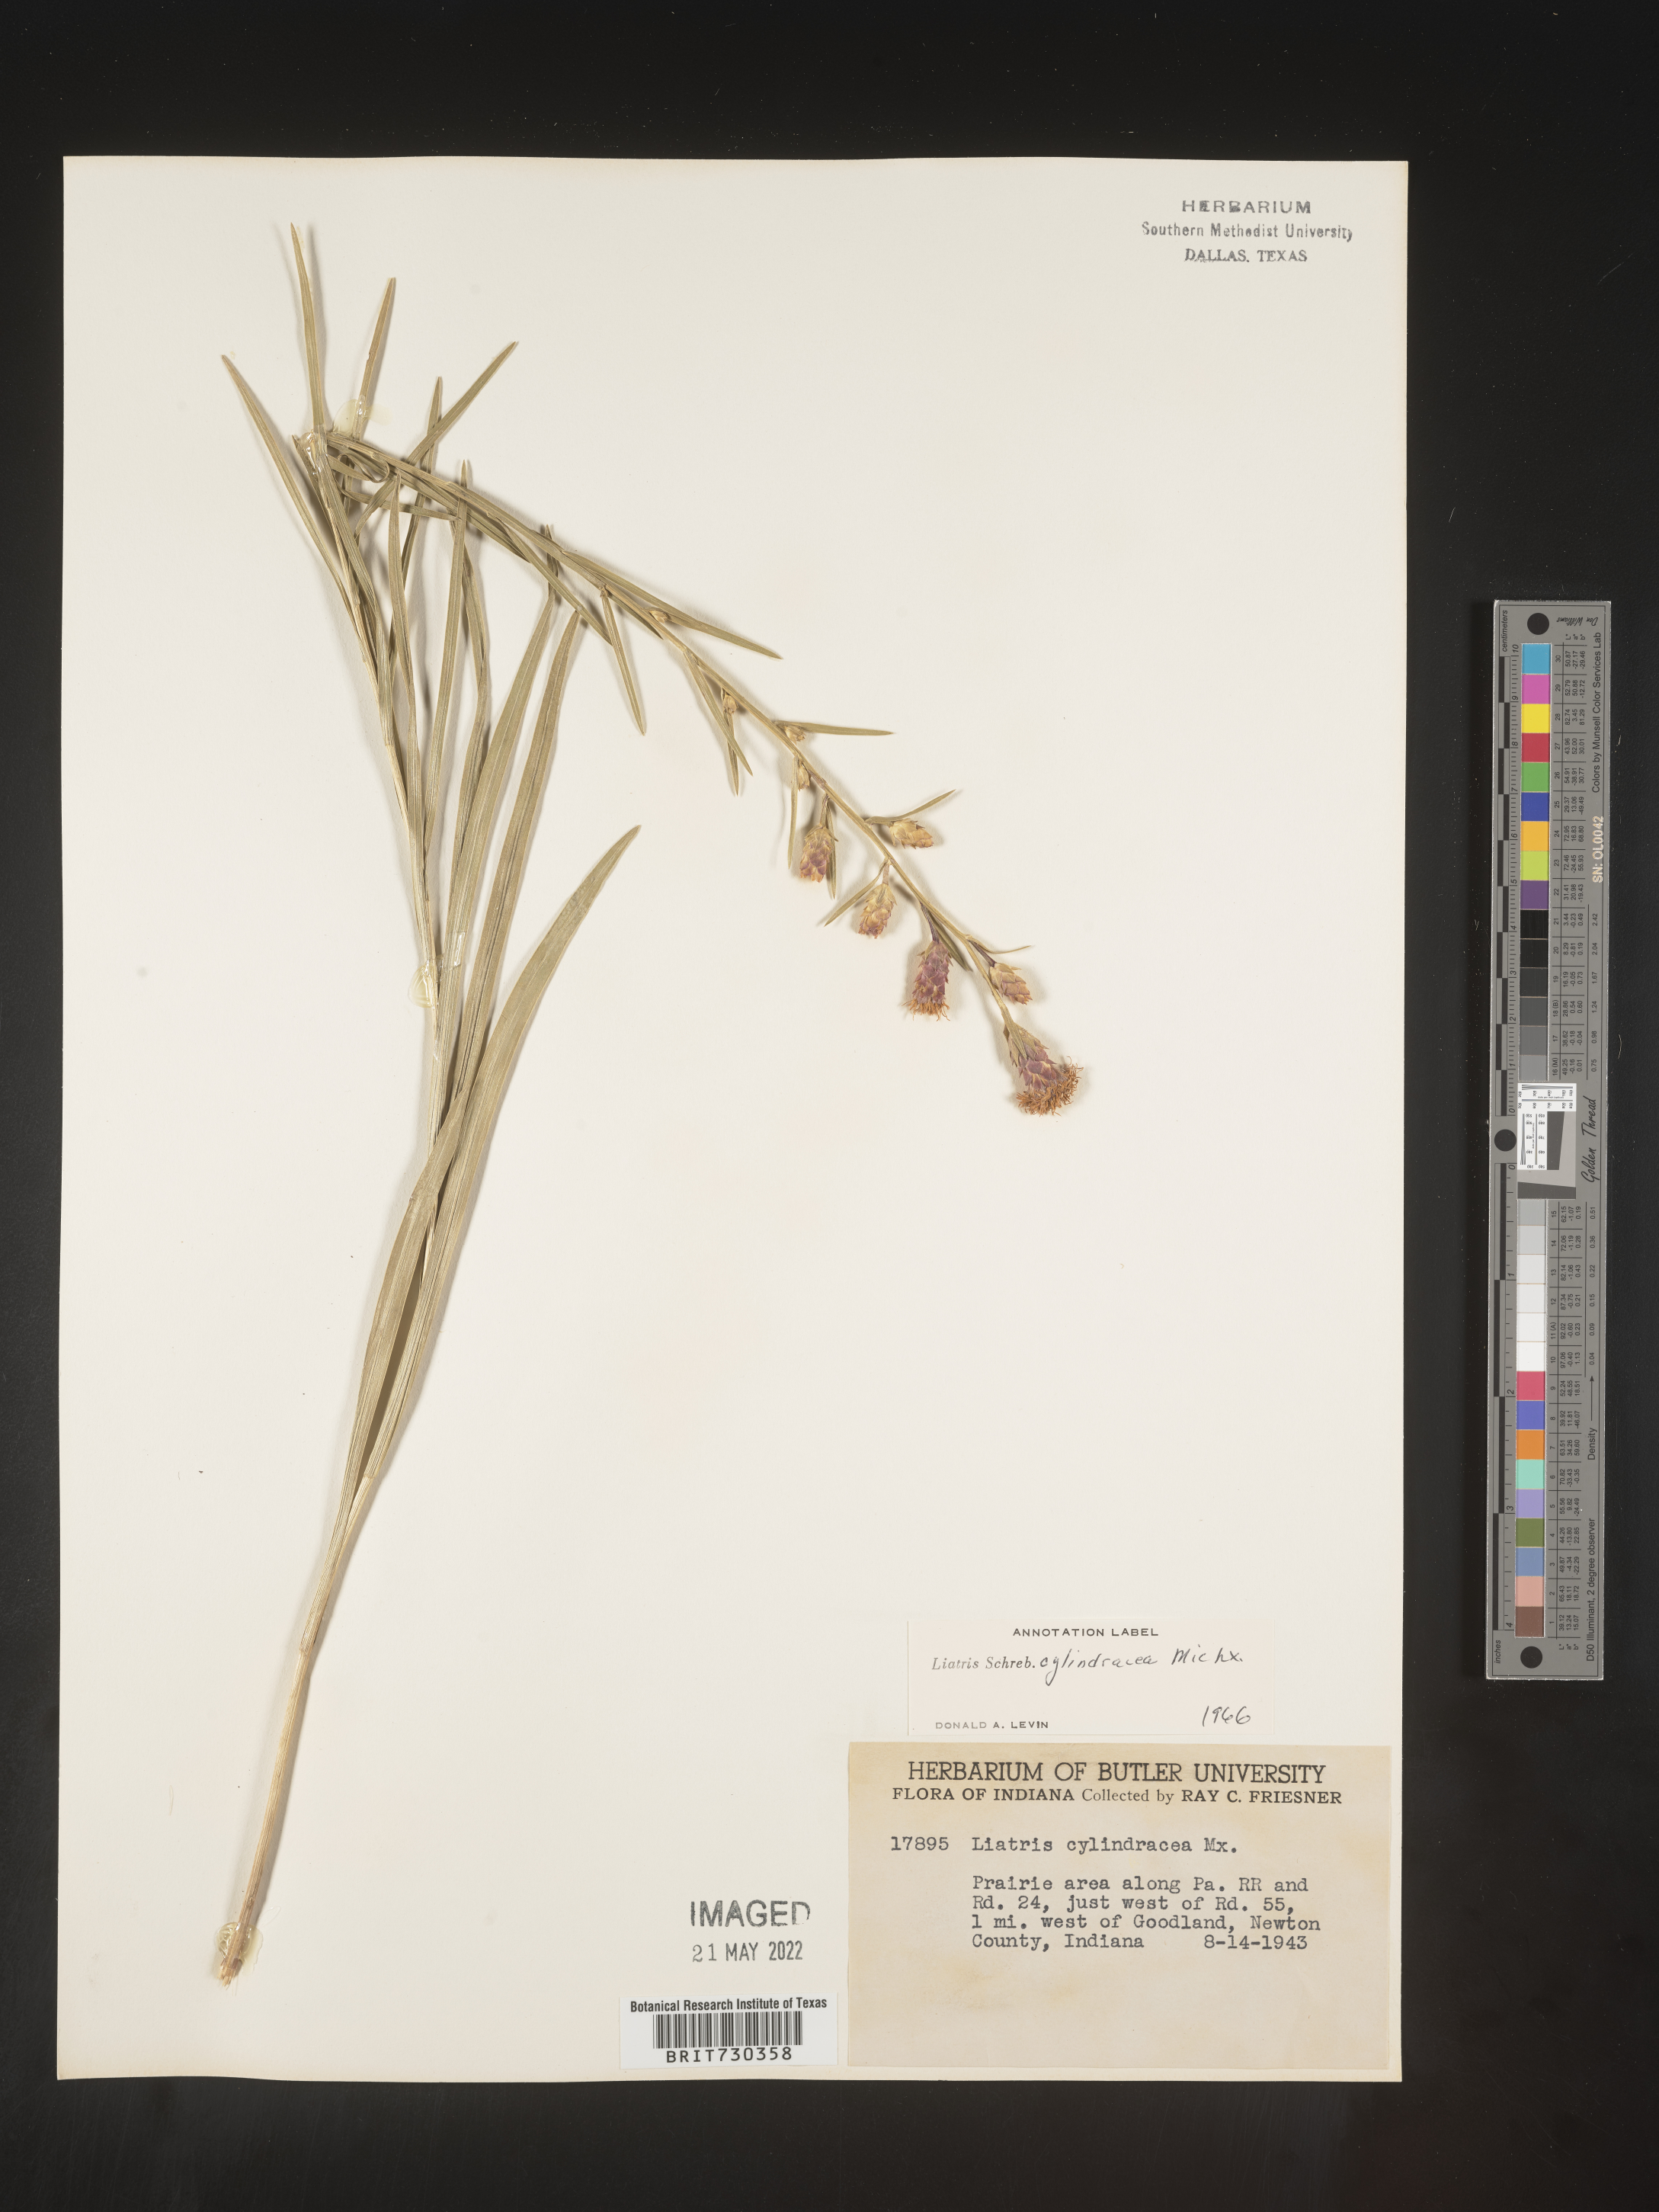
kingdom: Plantae
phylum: Tracheophyta
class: Magnoliopsida
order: Asterales
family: Asteraceae
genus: Liatris
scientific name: Liatris cylindracea
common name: Few-head blazingstar
